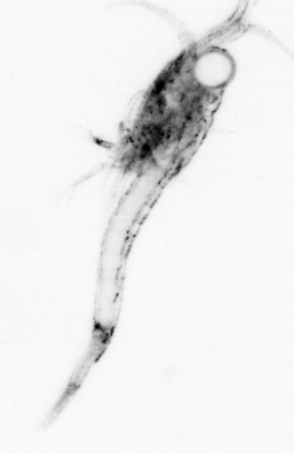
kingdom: Animalia
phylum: Arthropoda
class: Malacostraca
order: Decapoda
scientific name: Decapoda
